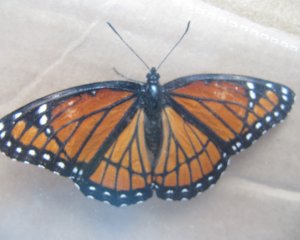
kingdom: Animalia
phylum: Arthropoda
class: Insecta
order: Lepidoptera
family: Nymphalidae
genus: Limenitis
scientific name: Limenitis archippus
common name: Viceroy
